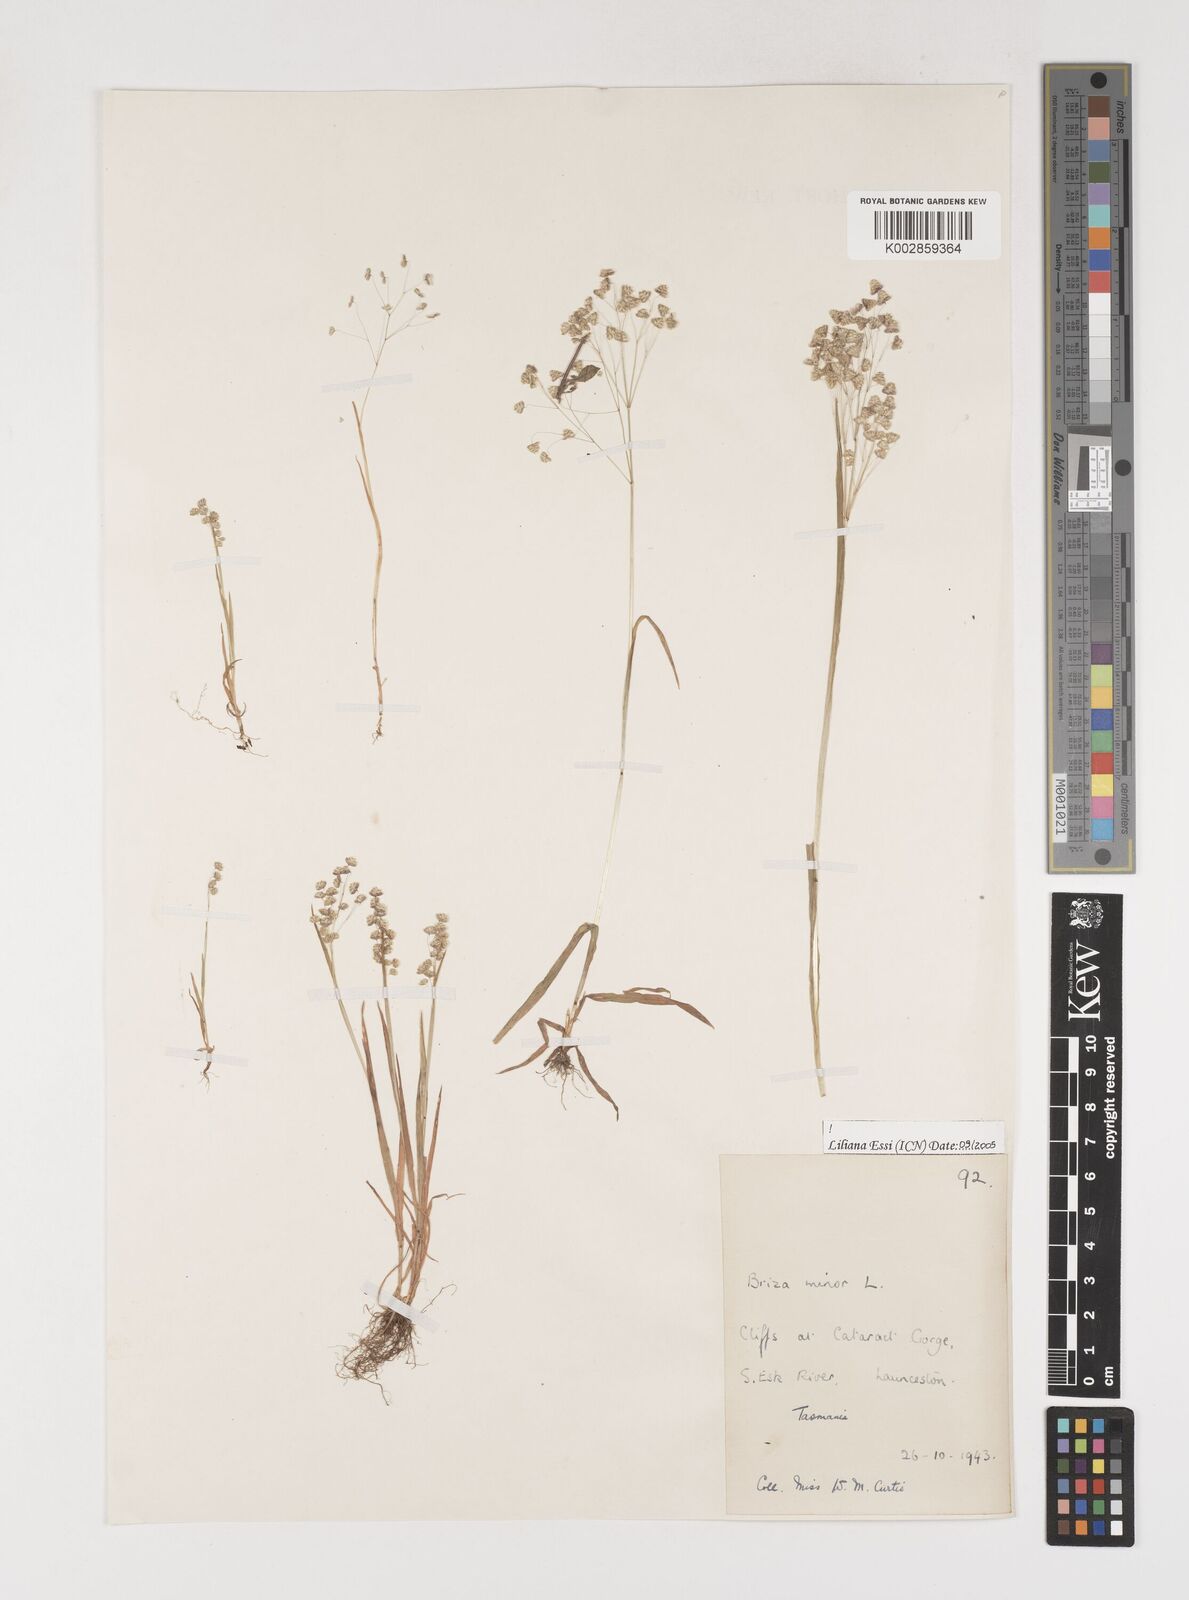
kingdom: Plantae
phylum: Tracheophyta
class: Liliopsida
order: Poales
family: Poaceae
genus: Briza
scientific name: Briza minor
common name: Lesser quaking-grass
